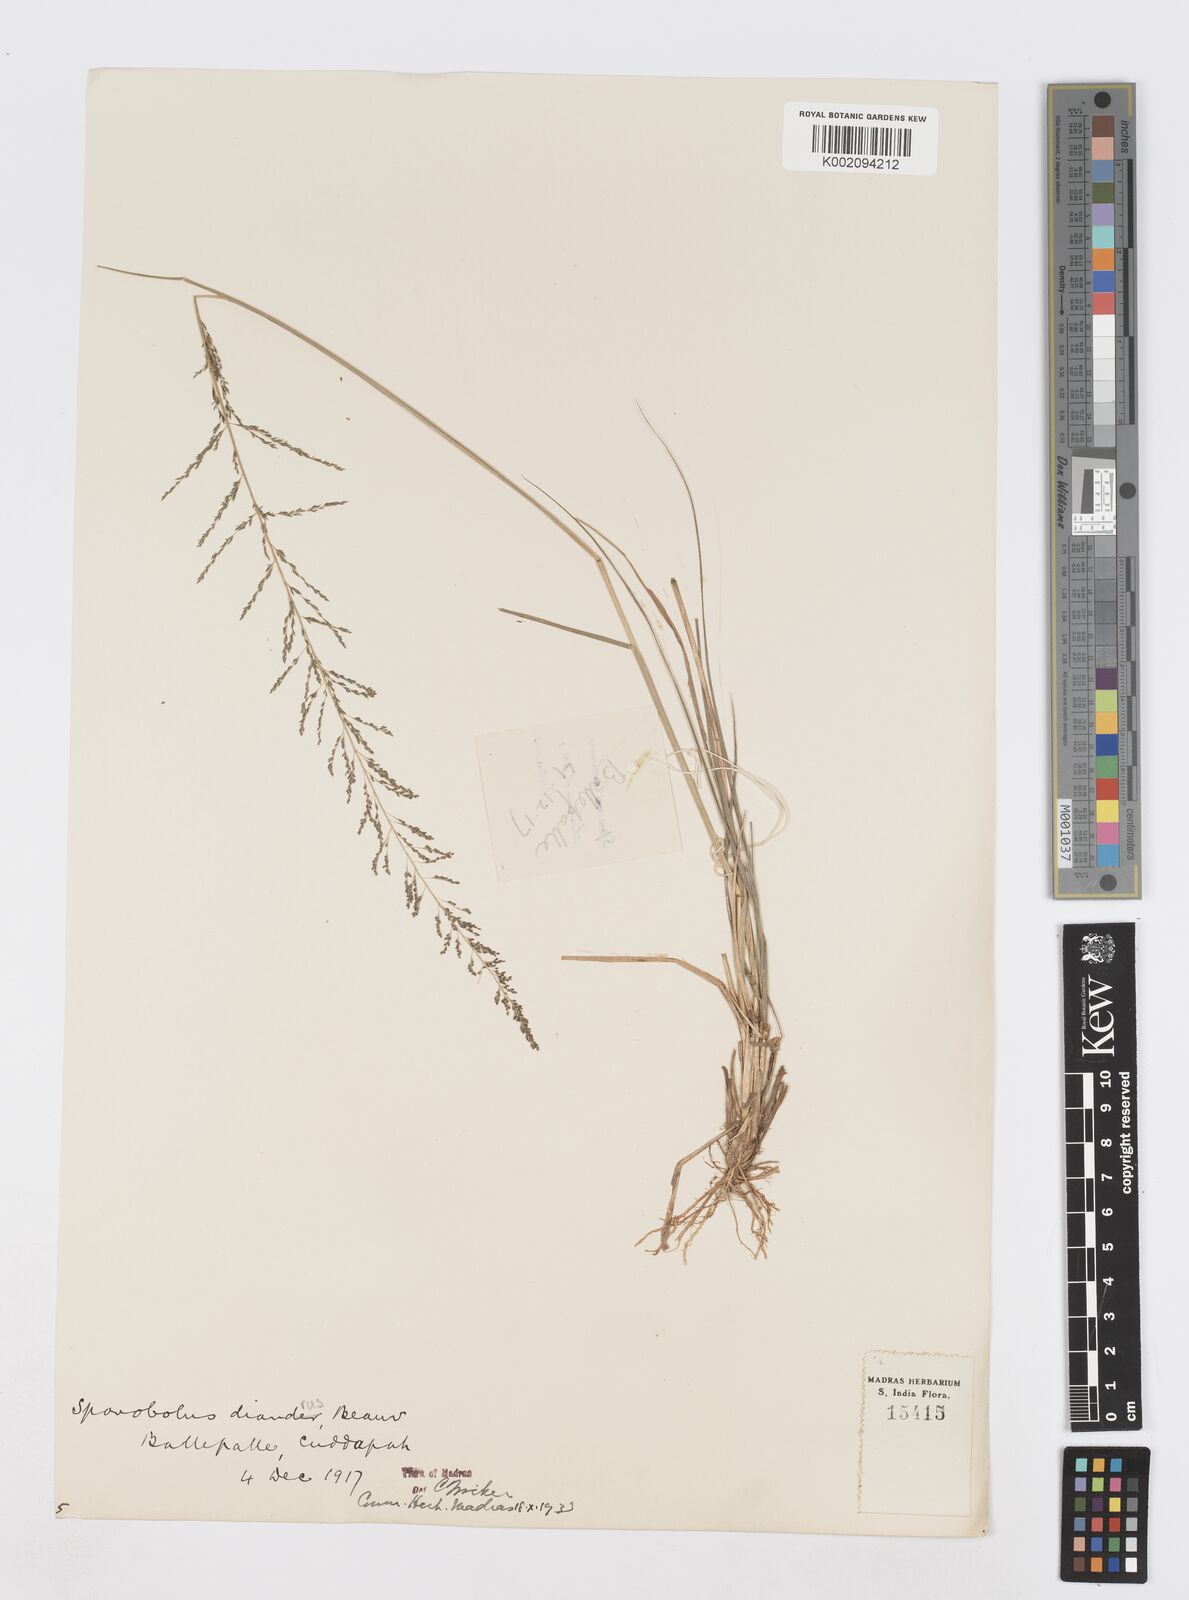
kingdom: Plantae
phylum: Tracheophyta
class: Liliopsida
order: Poales
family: Poaceae
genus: Sporobolus
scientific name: Sporobolus diandrus
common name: Tussock dropseed
